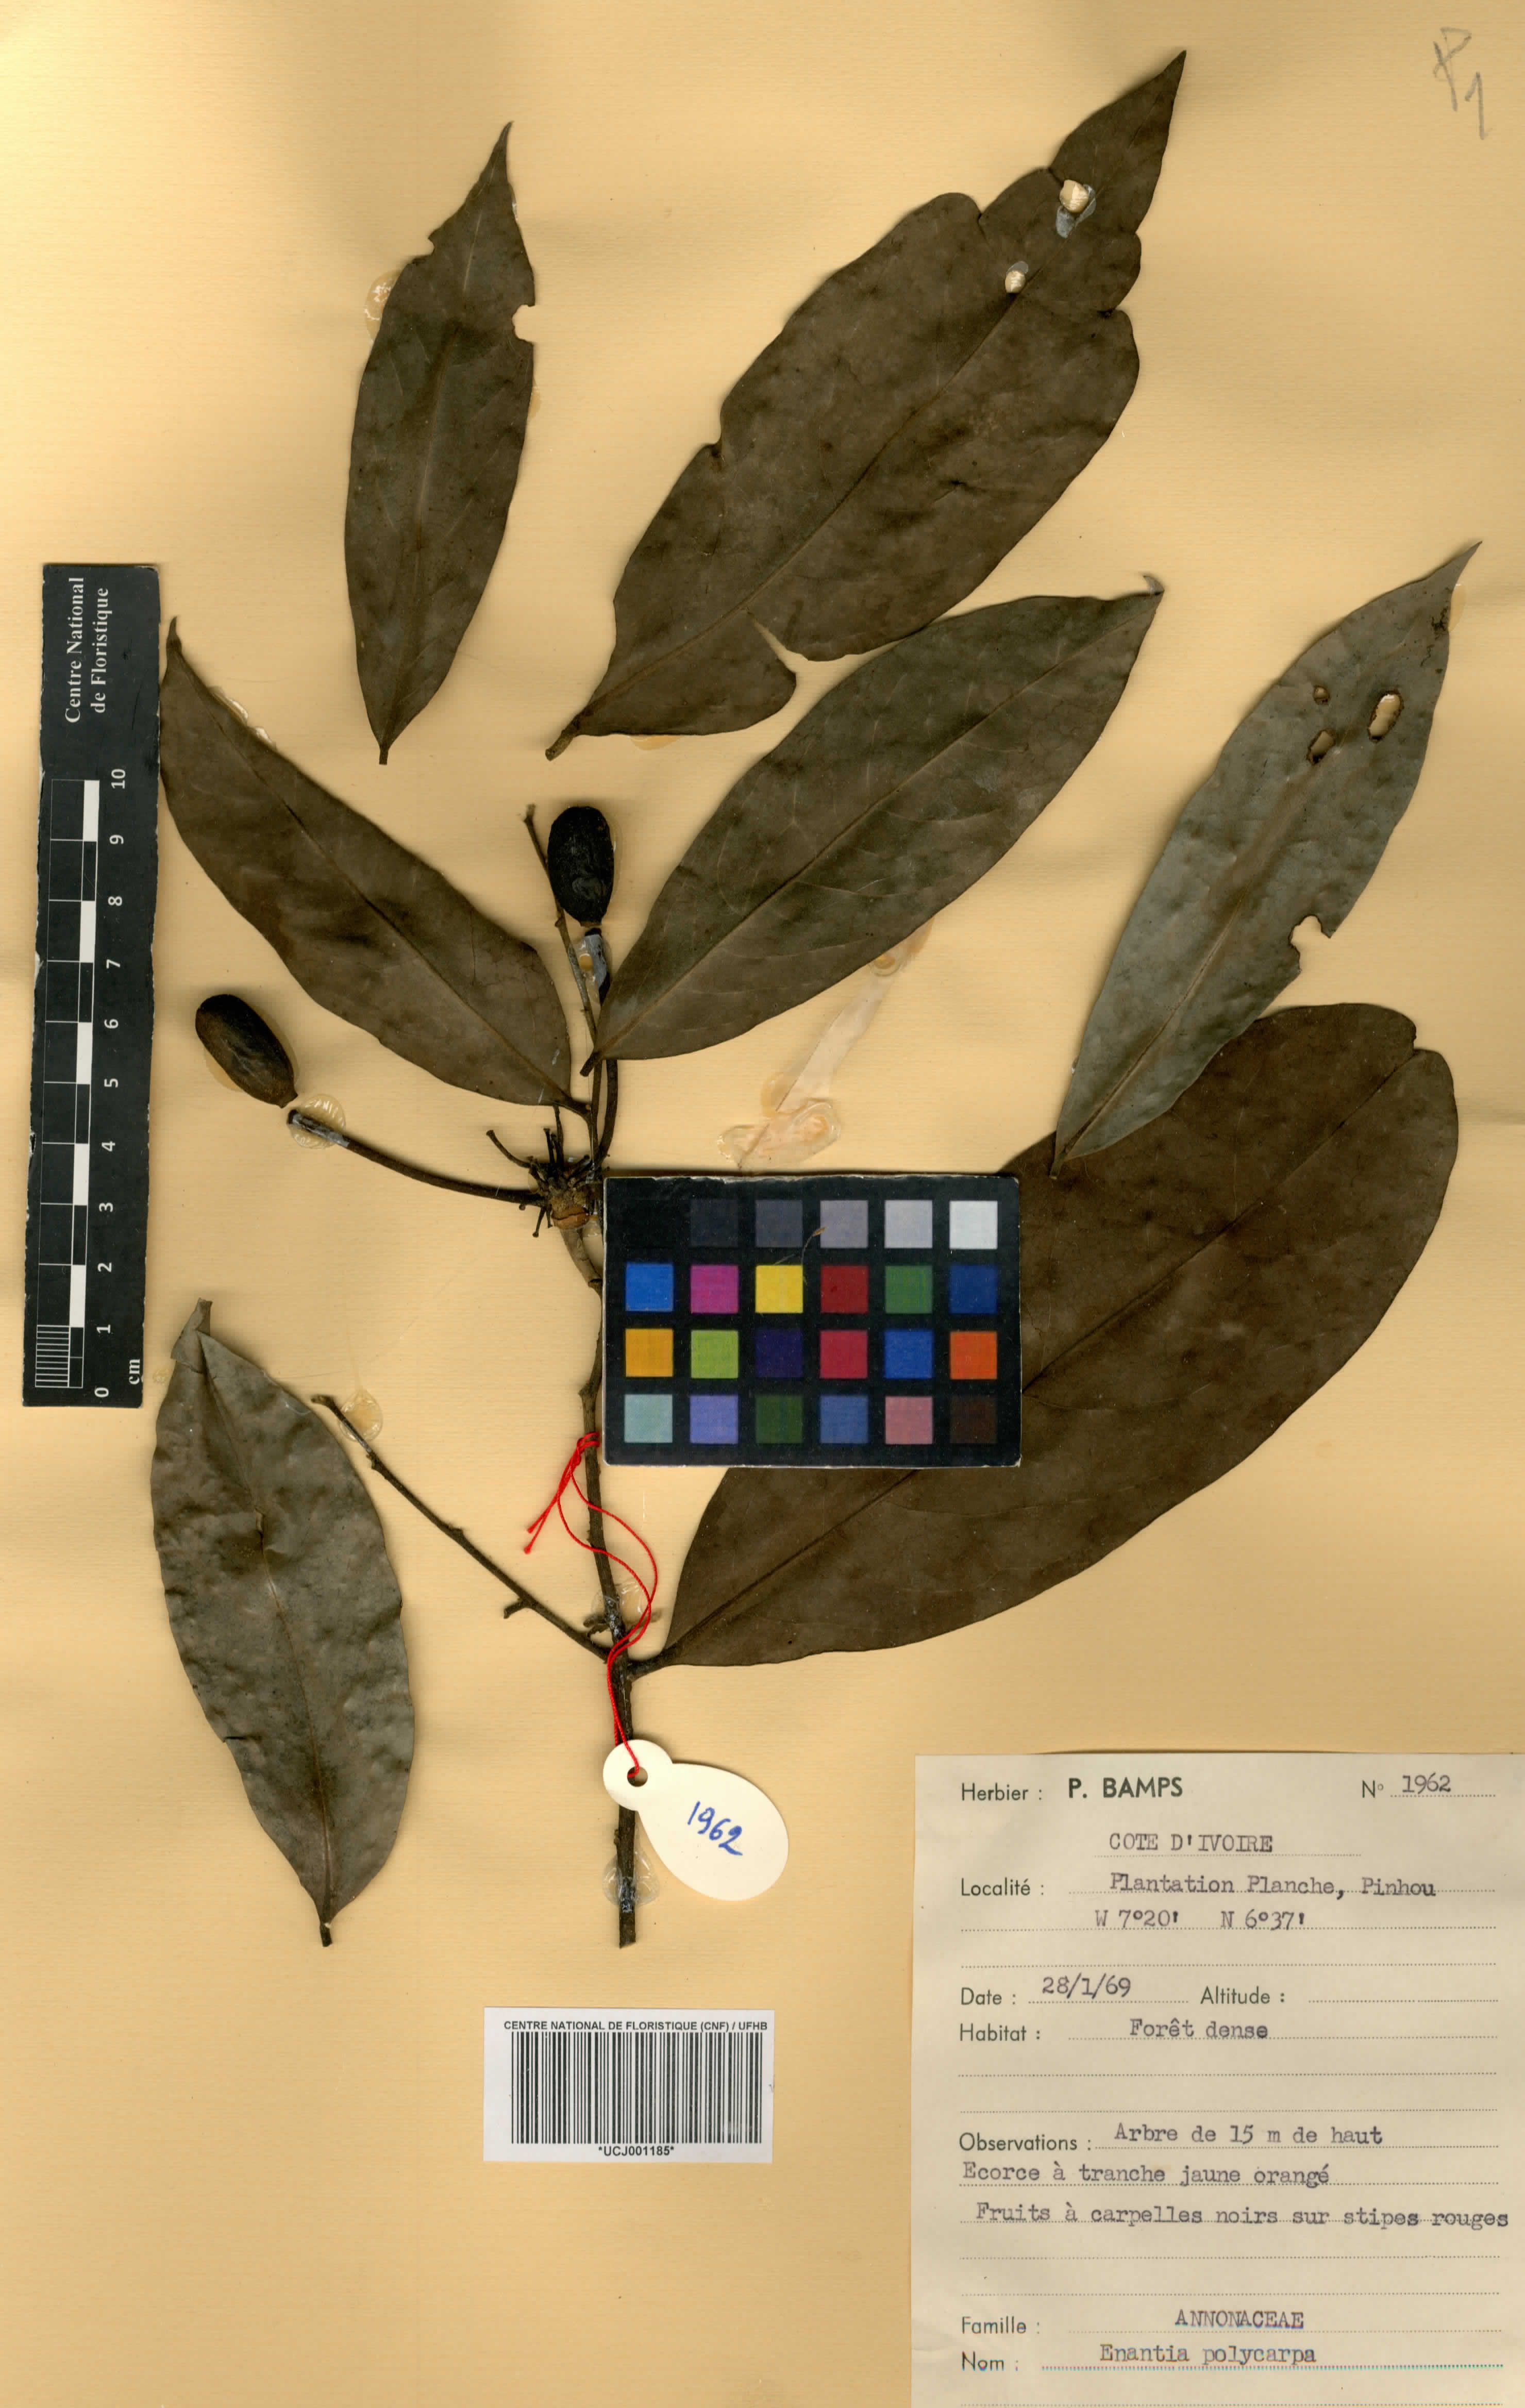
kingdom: Plantae
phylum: Tracheophyta
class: Magnoliopsida
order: Magnoliales
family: Annonaceae
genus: Annickia
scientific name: Annickia polycarpa
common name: African yellowwood
